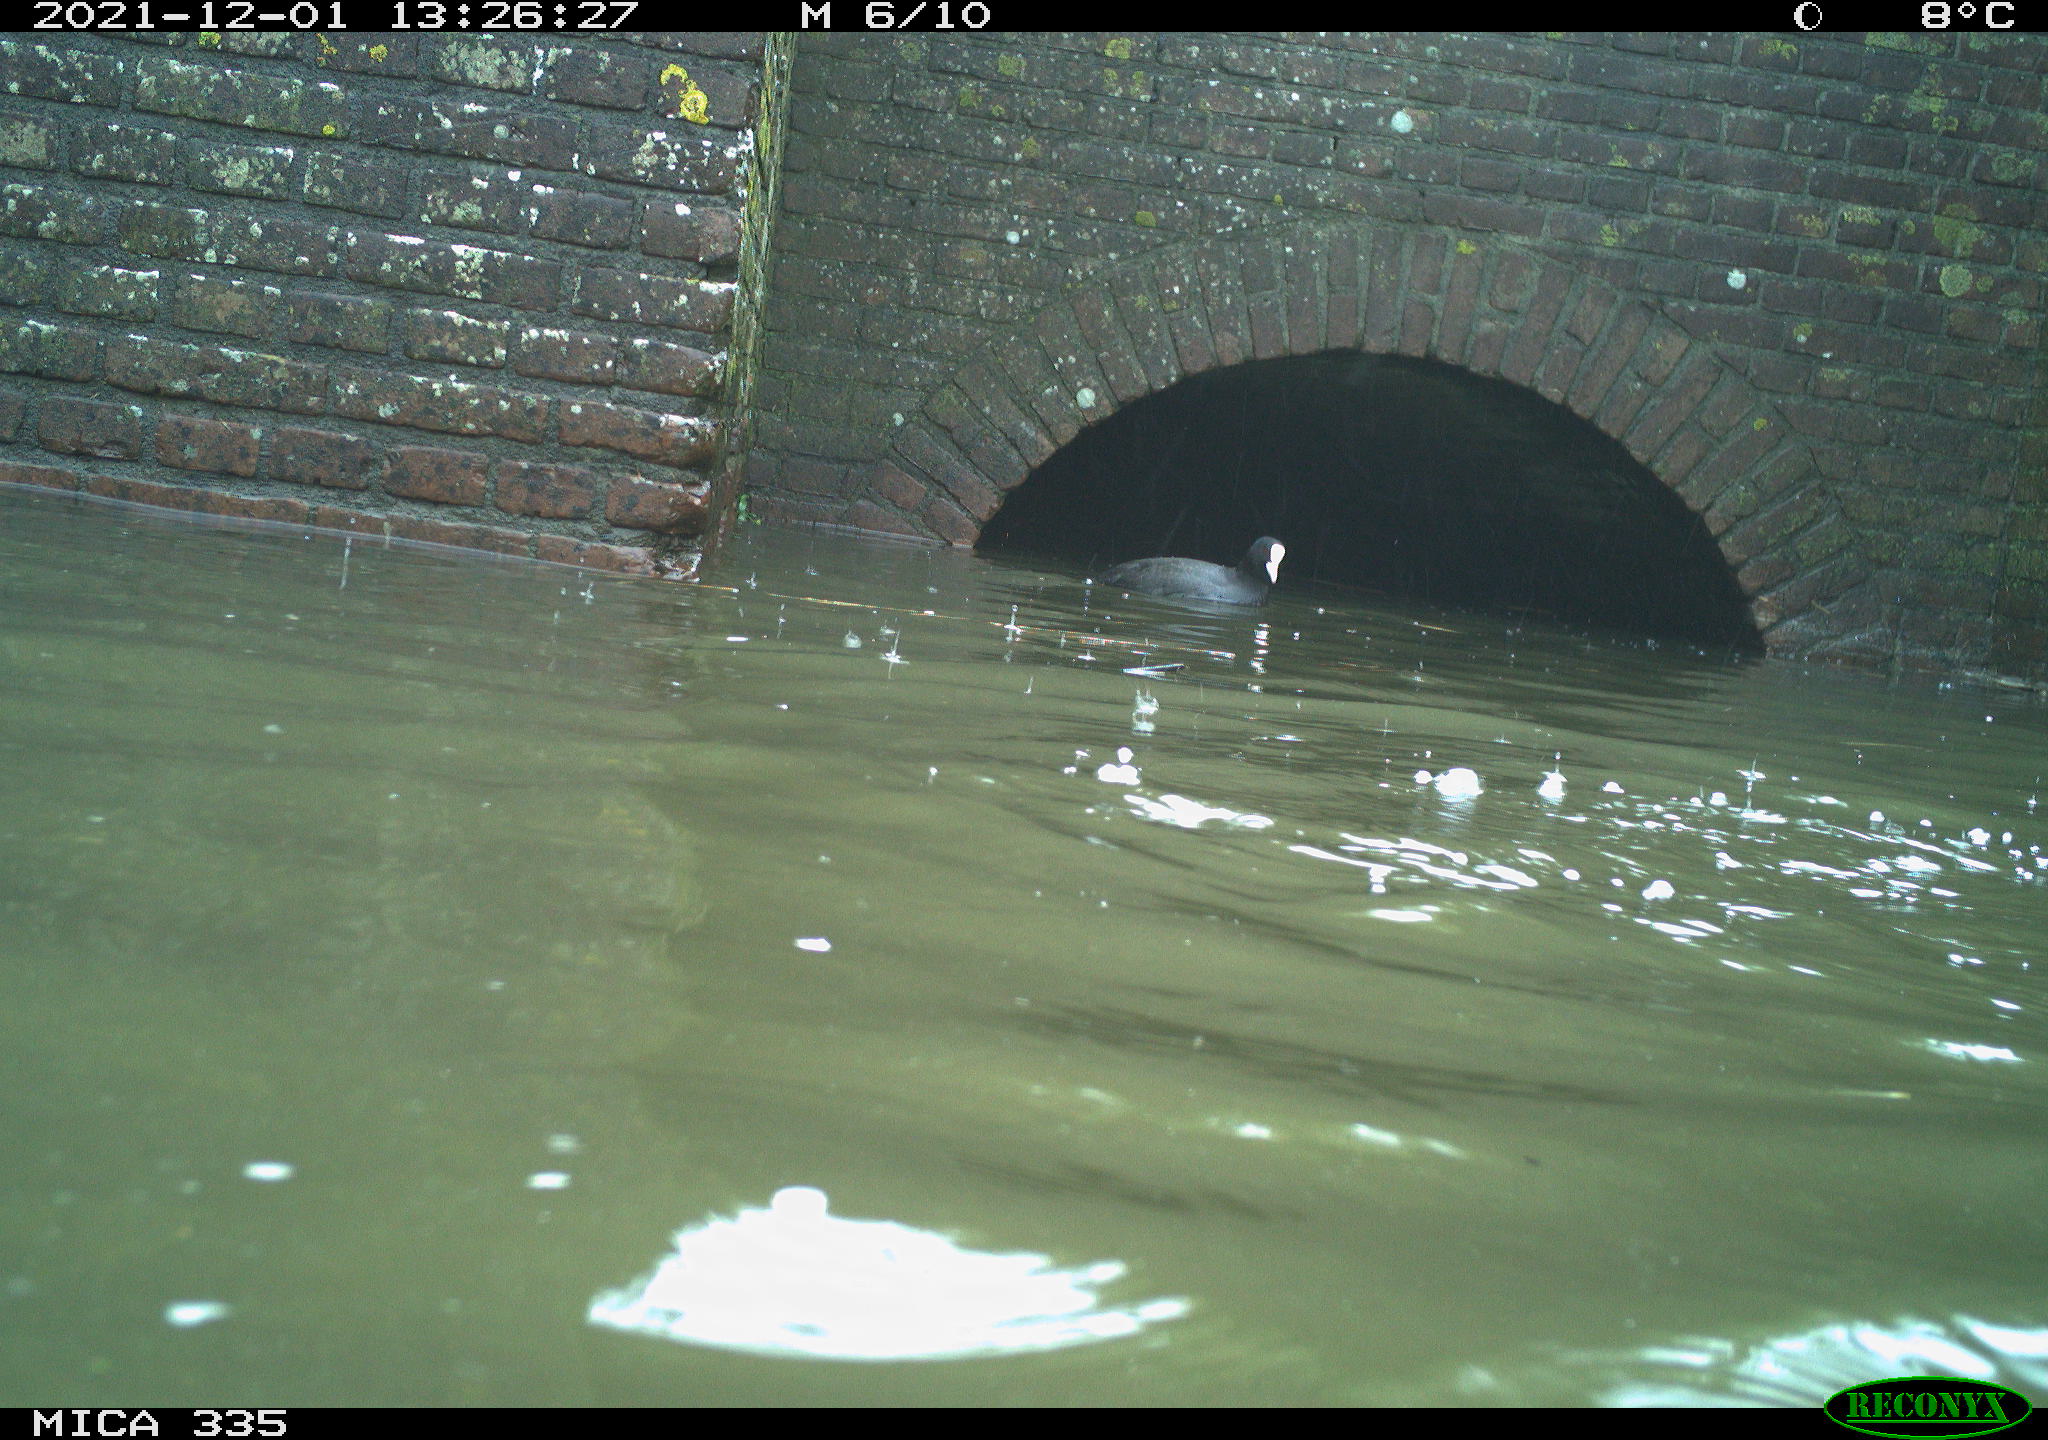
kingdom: Animalia
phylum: Chordata
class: Aves
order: Gruiformes
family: Rallidae
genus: Fulica
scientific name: Fulica atra
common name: Eurasian coot
